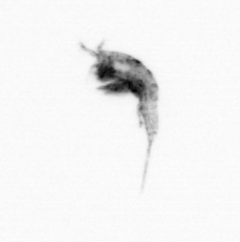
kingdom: Animalia
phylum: Arthropoda
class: Copepoda
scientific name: Copepoda
